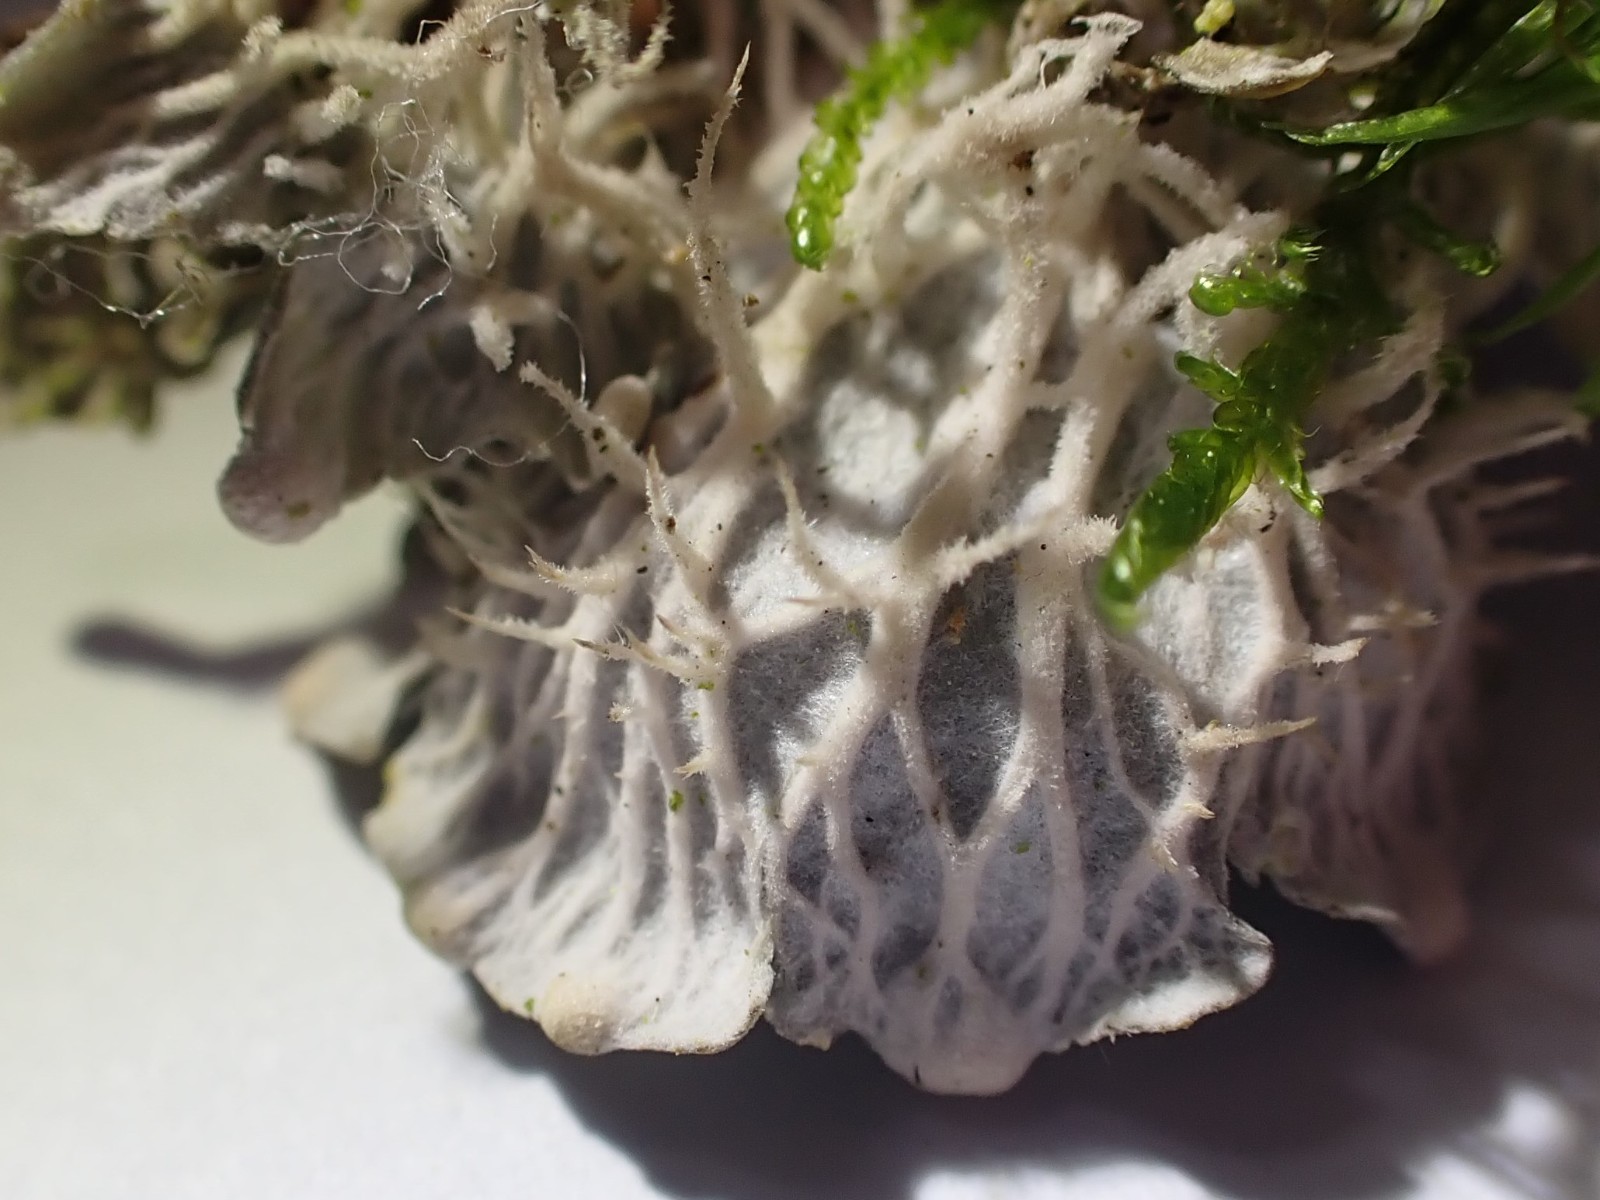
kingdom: Fungi
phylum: Ascomycota
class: Lecanoromycetes
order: Peltigerales
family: Peltigeraceae
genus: Peltigera
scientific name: Peltigera membranacea
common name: tynd skjoldlav
